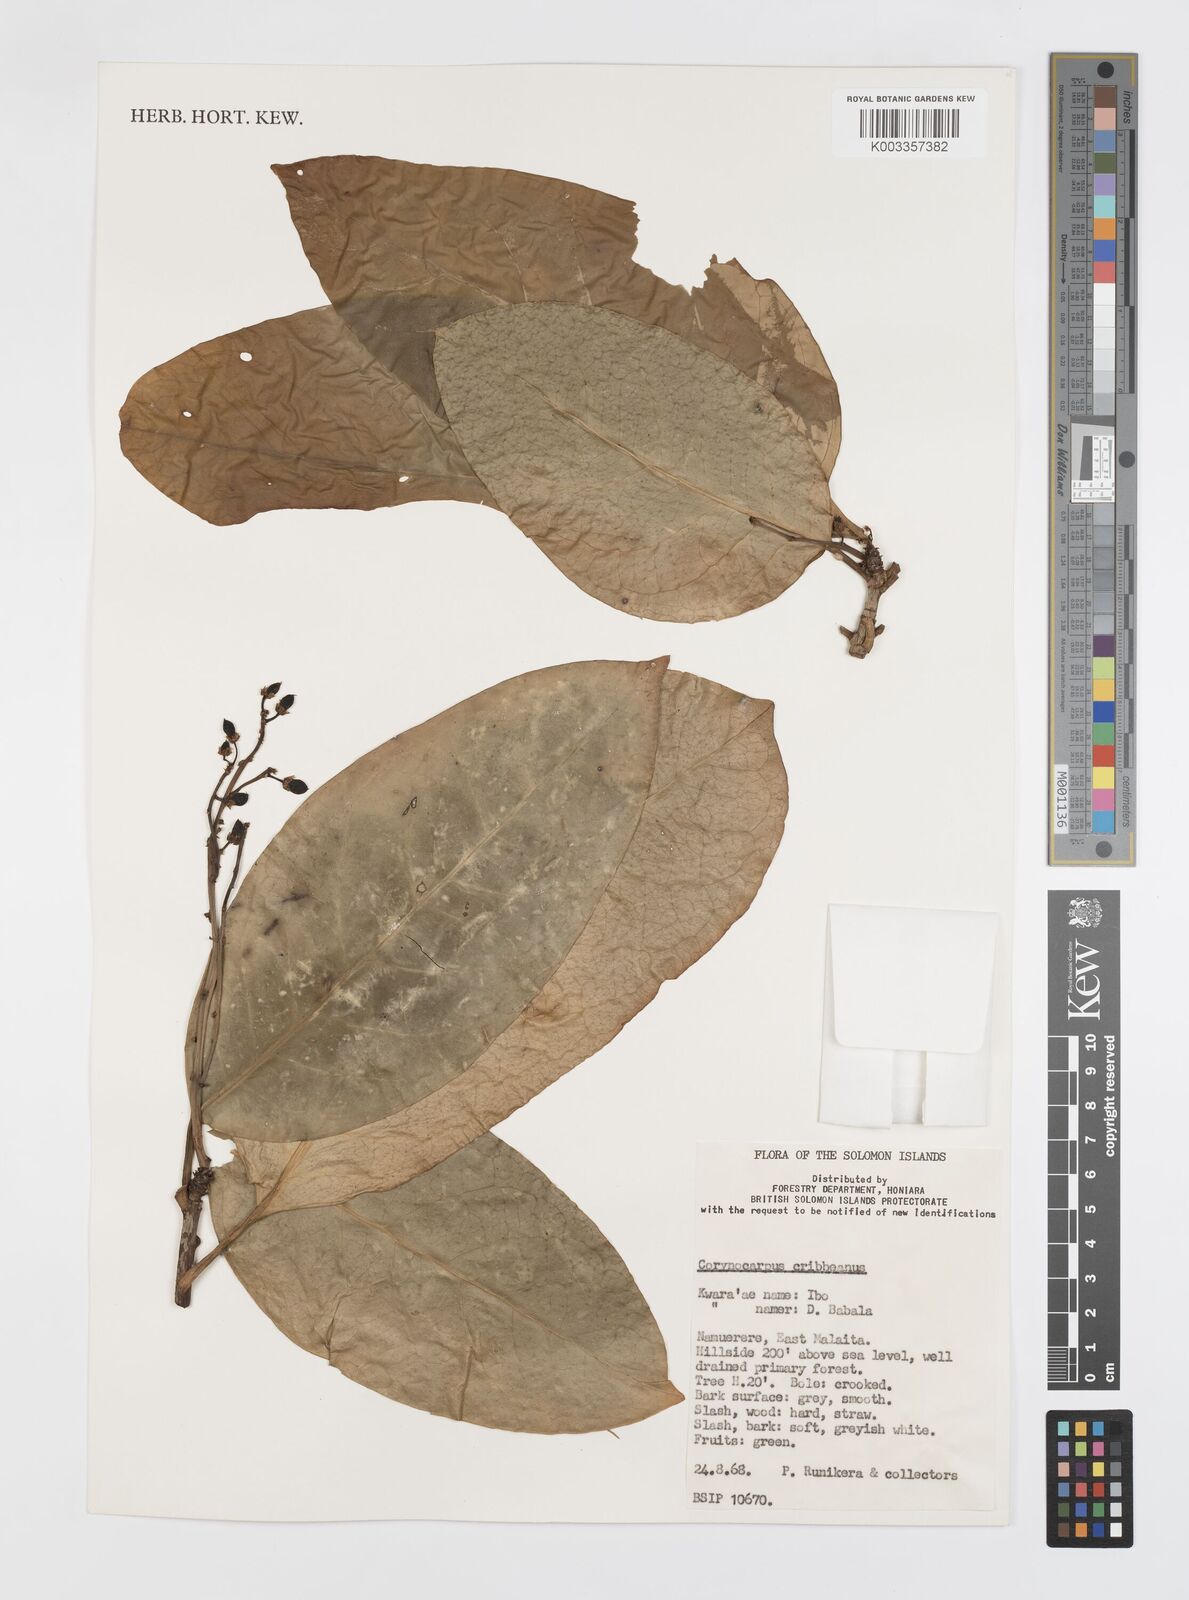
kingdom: Plantae
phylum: Tracheophyta
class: Magnoliopsida
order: Cucurbitales
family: Corynocarpaceae
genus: Corynocarpus
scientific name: Corynocarpus similis
